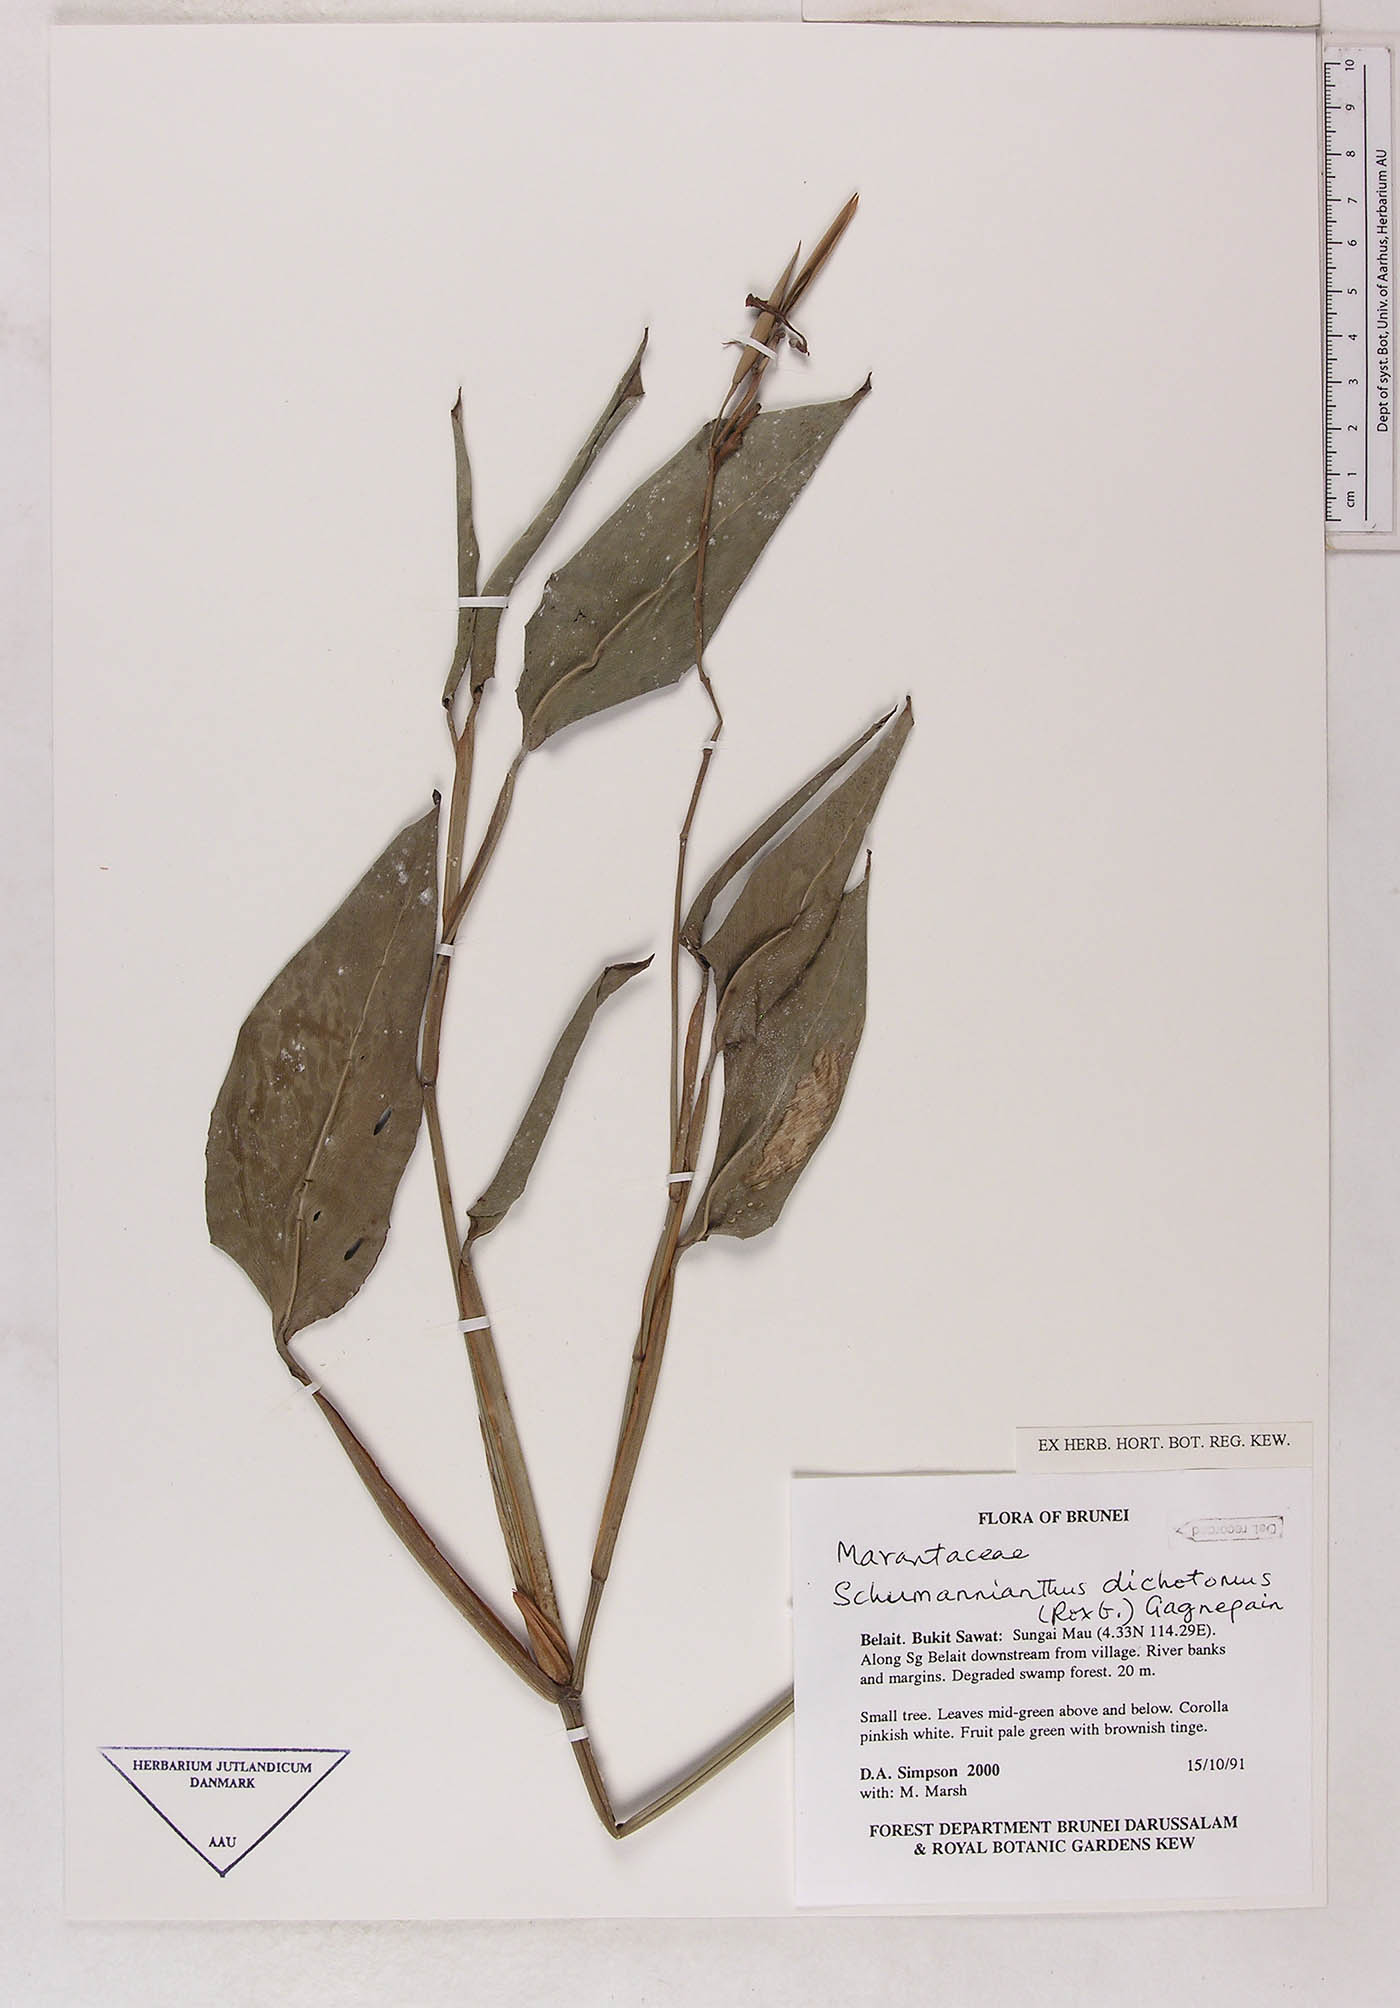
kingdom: Plantae
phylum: Tracheophyta
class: Liliopsida
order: Zingiberales
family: Marantaceae
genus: Schumannianthus
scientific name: Schumannianthus benthamianus
